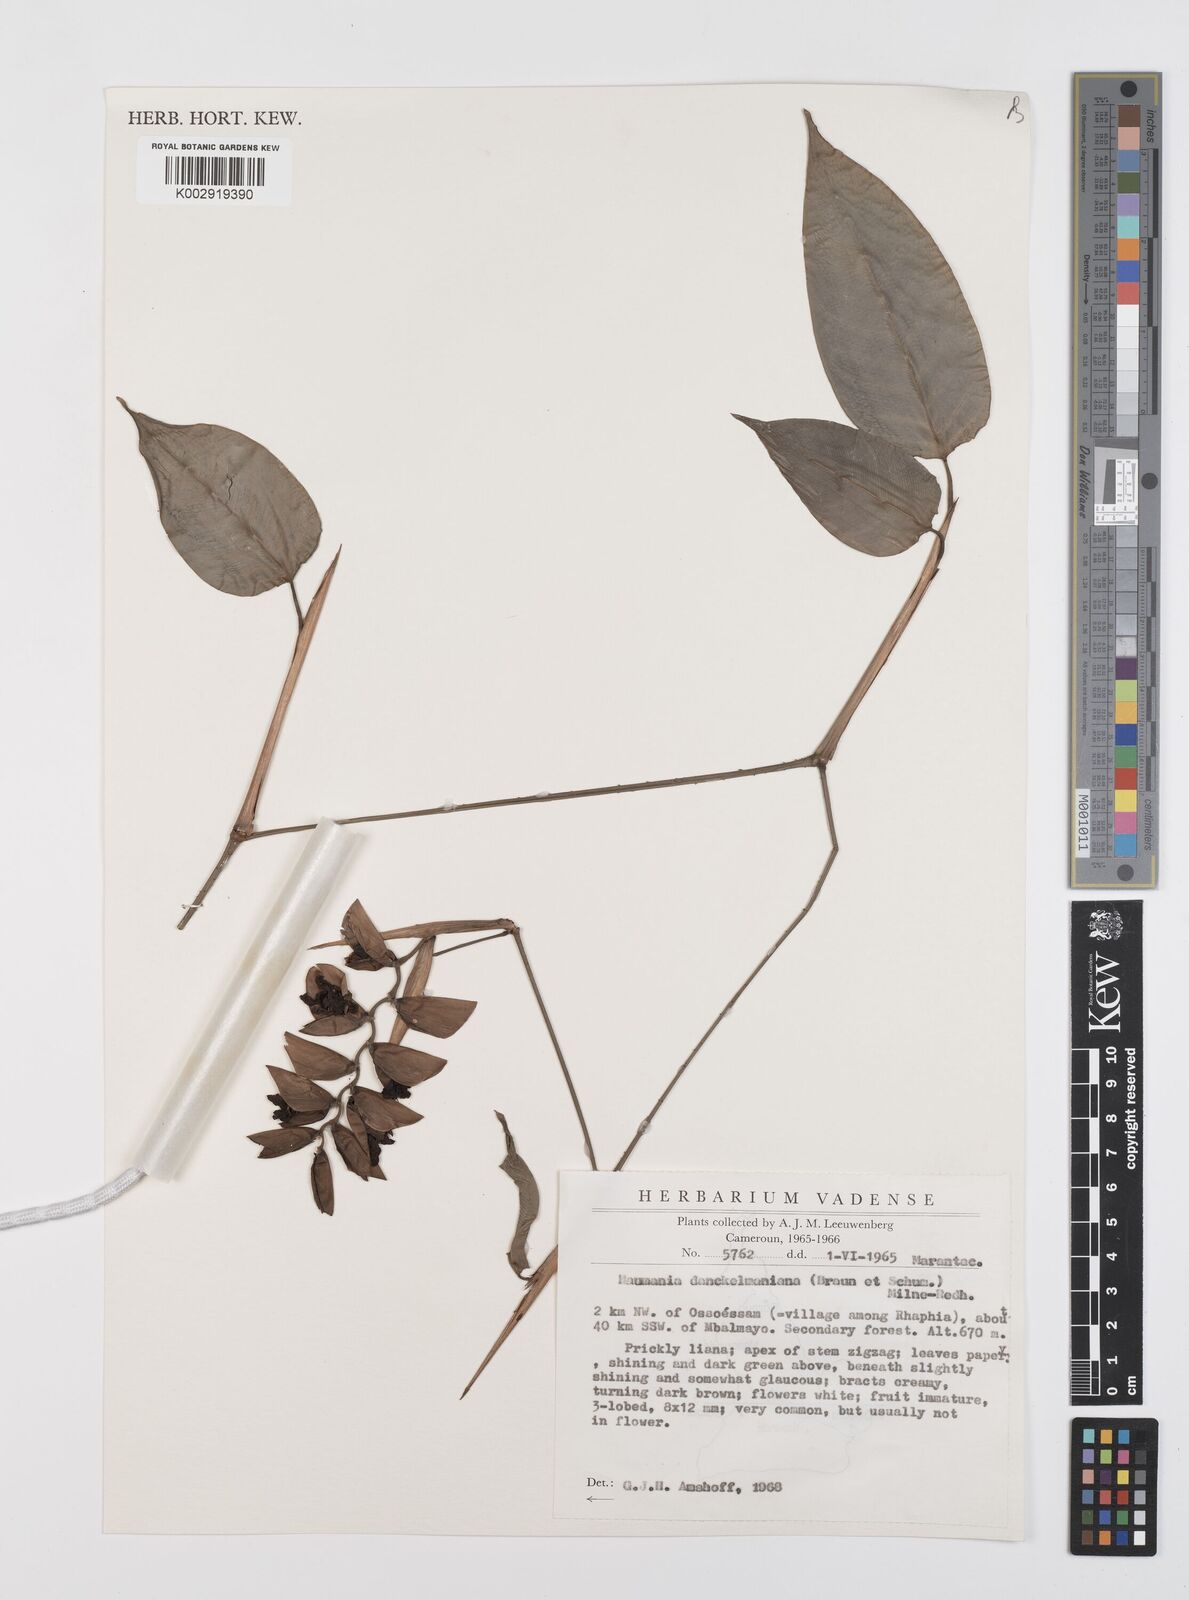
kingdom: Plantae
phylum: Tracheophyta
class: Liliopsida
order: Zingiberales
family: Marantaceae
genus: Haumania
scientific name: Haumania danckelmaniana
